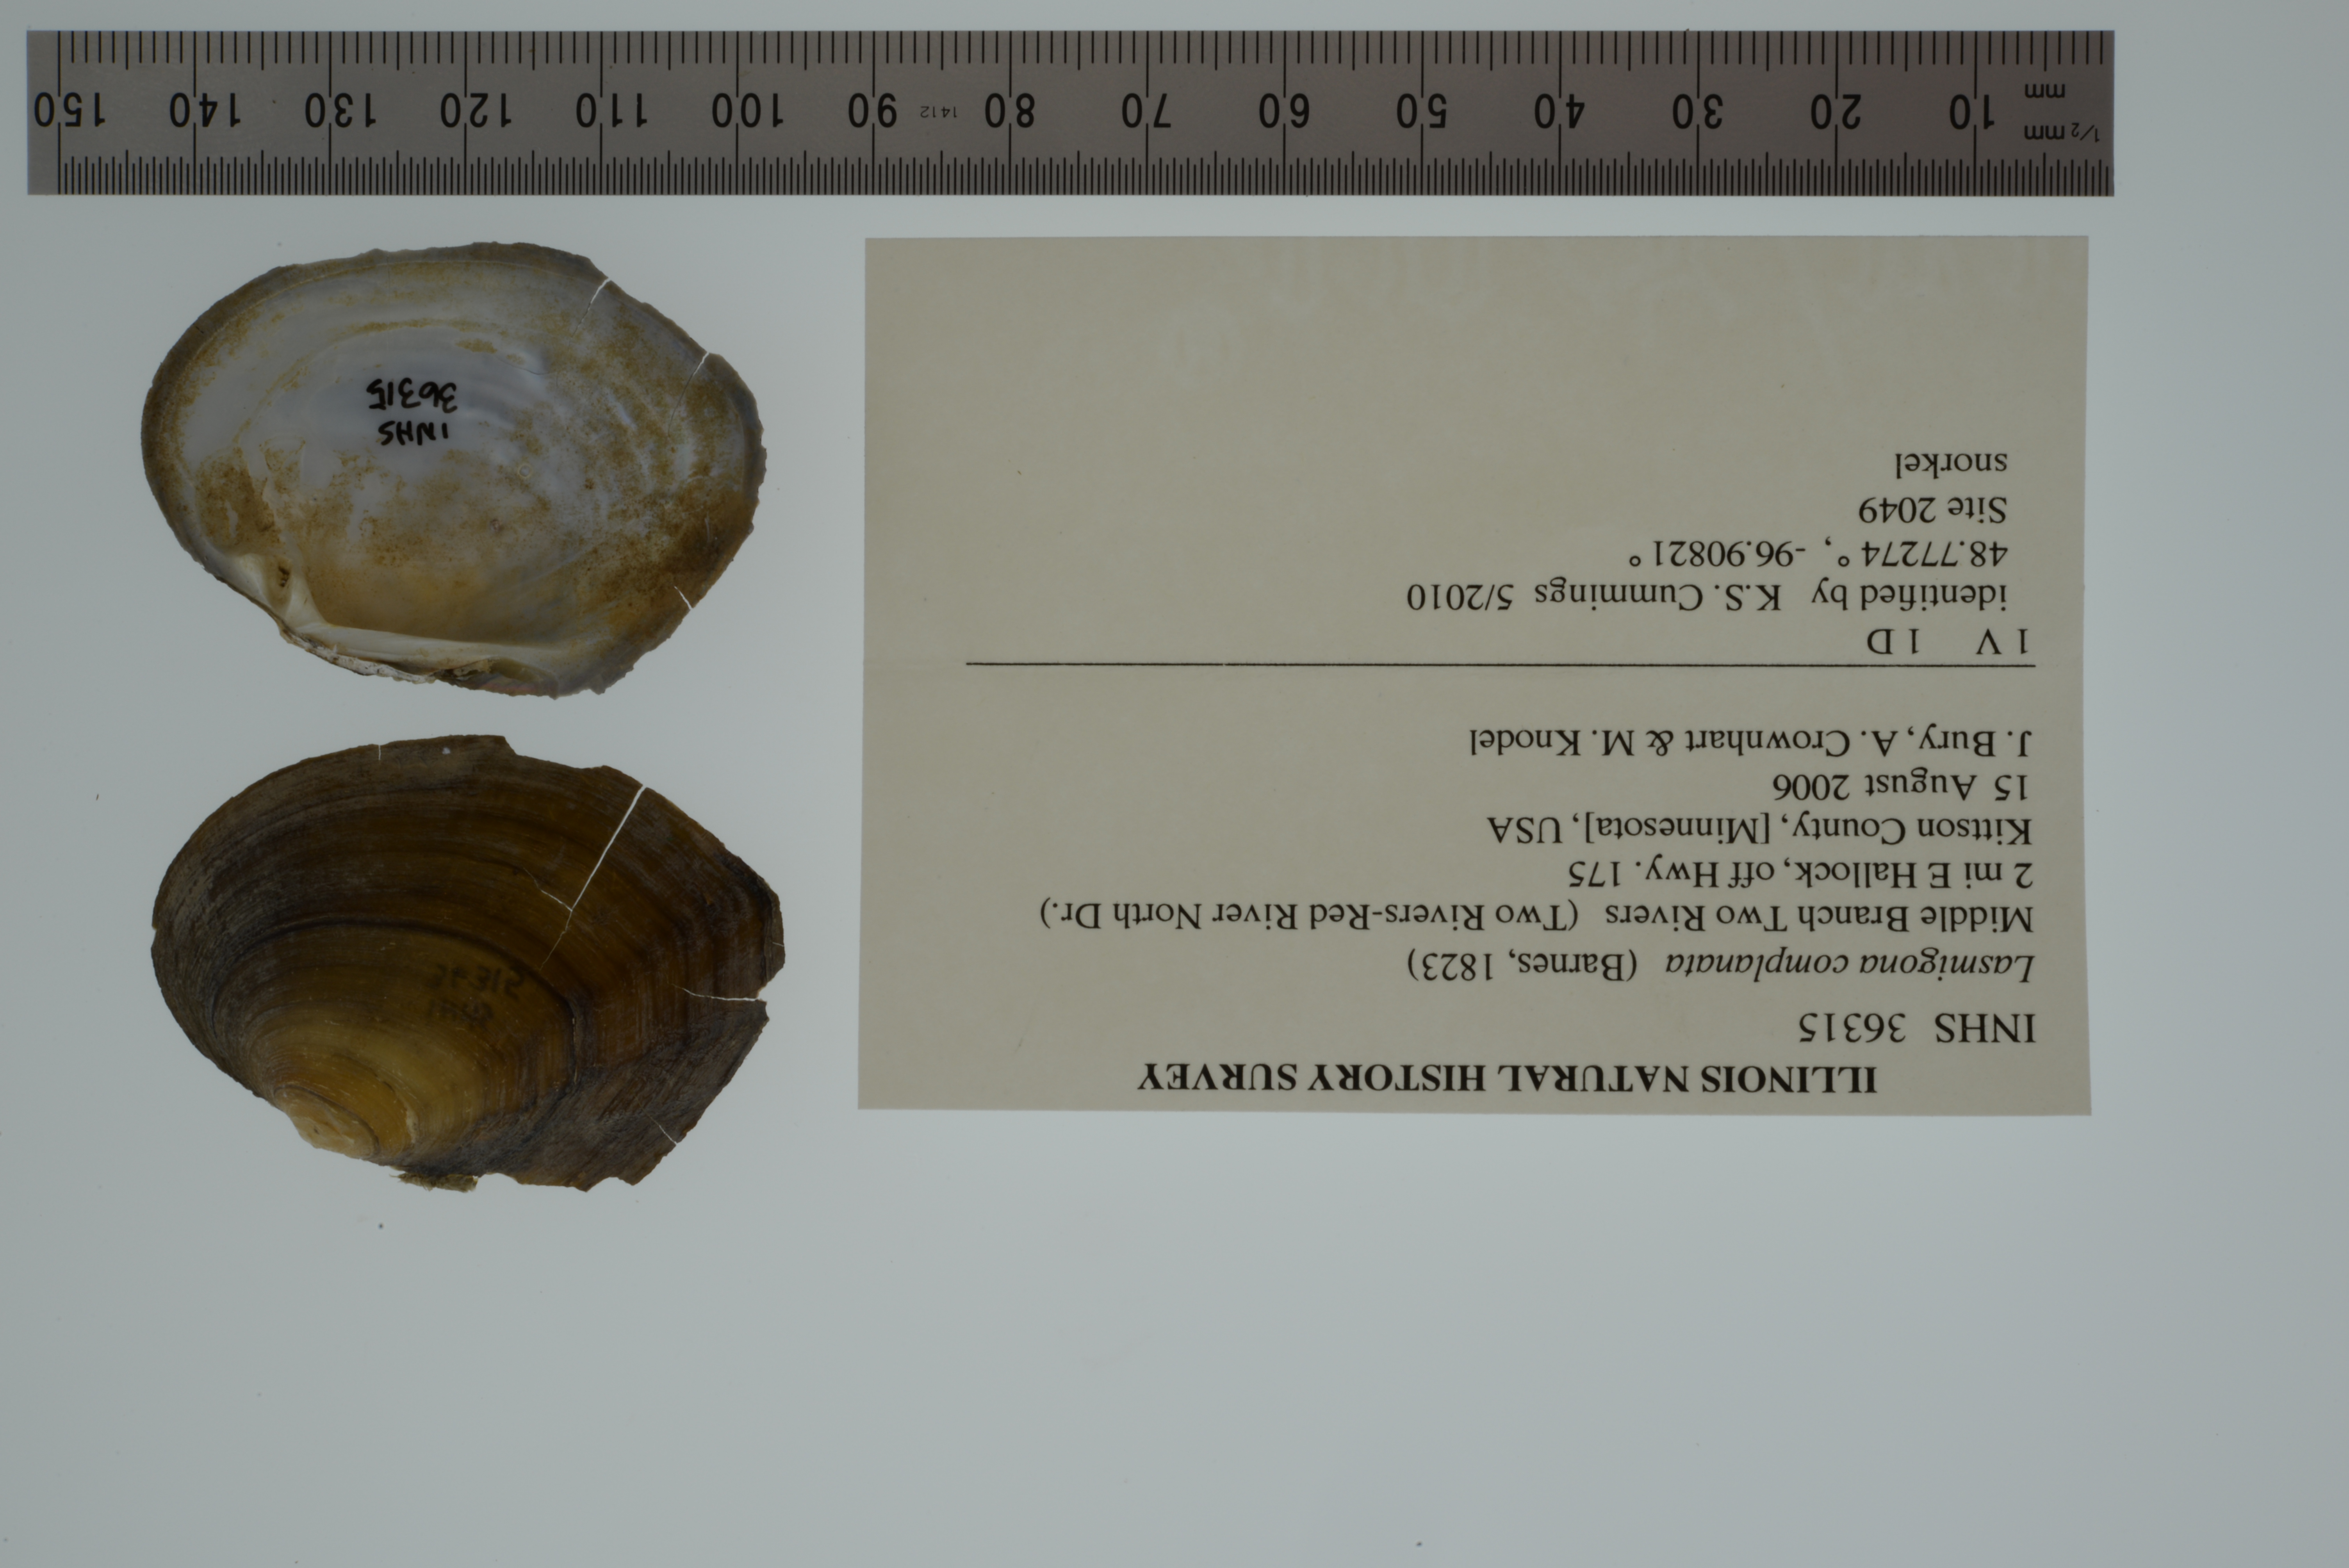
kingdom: Animalia
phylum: Mollusca
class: Bivalvia
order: Unionida
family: Unionidae
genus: Lasmigona
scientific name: Lasmigona complanata
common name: White heelsplitter
